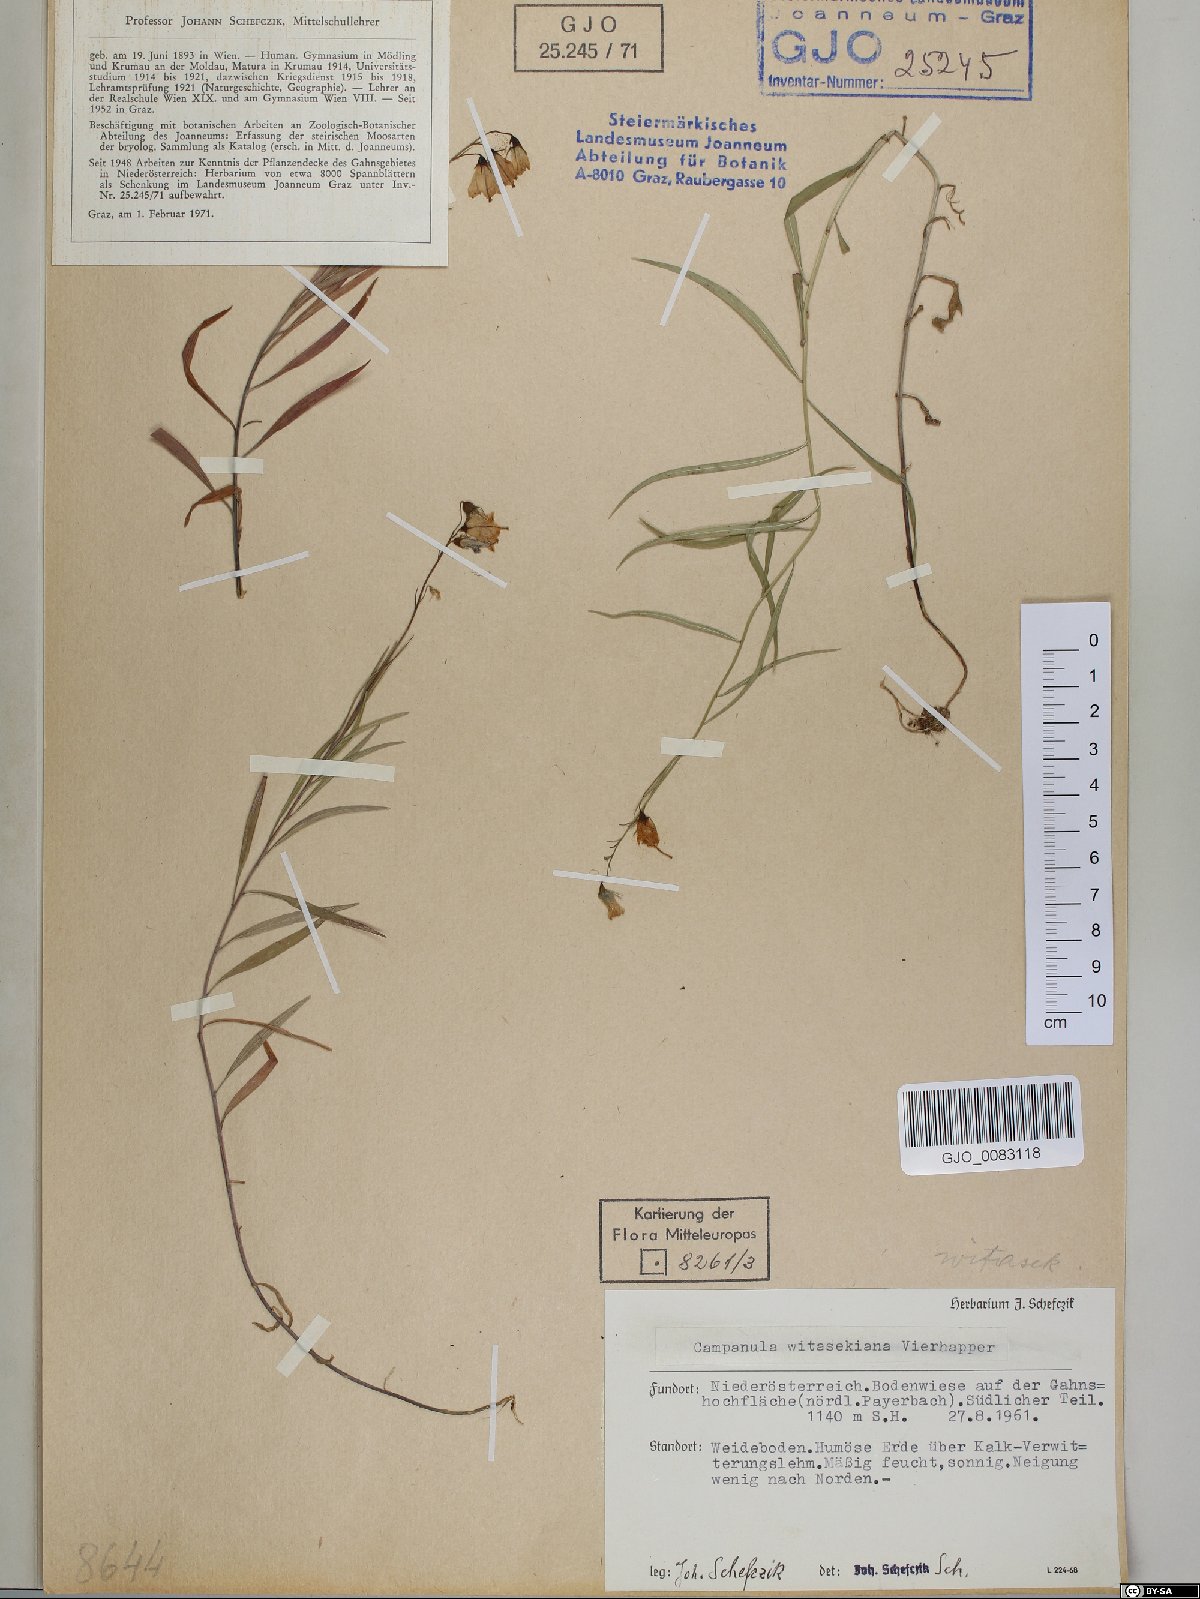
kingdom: Plantae
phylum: Tracheophyta
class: Magnoliopsida
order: Asterales
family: Campanulaceae
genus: Campanula
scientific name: Campanula witasekiana
